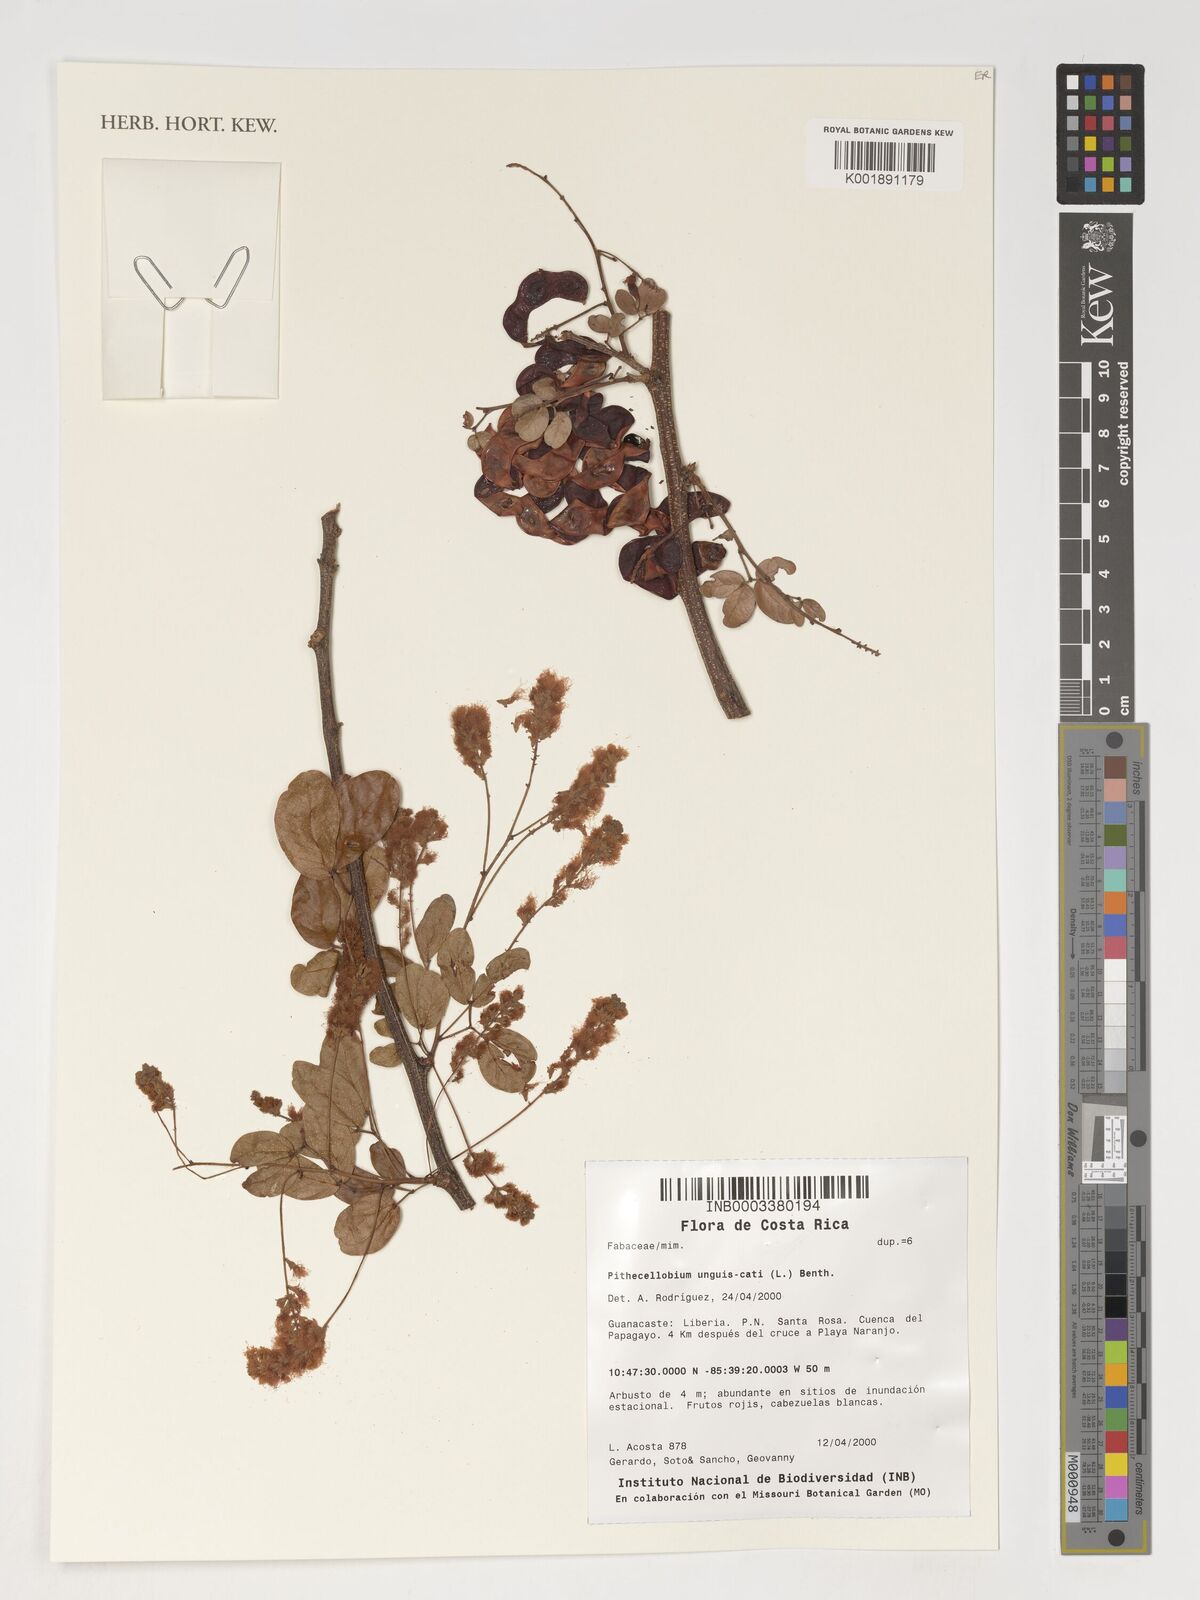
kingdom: Plantae
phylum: Tracheophyta
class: Magnoliopsida
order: Fabales
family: Fabaceae
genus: Pithecellobium
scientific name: Pithecellobium unguis-cati
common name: Cat's-claw
